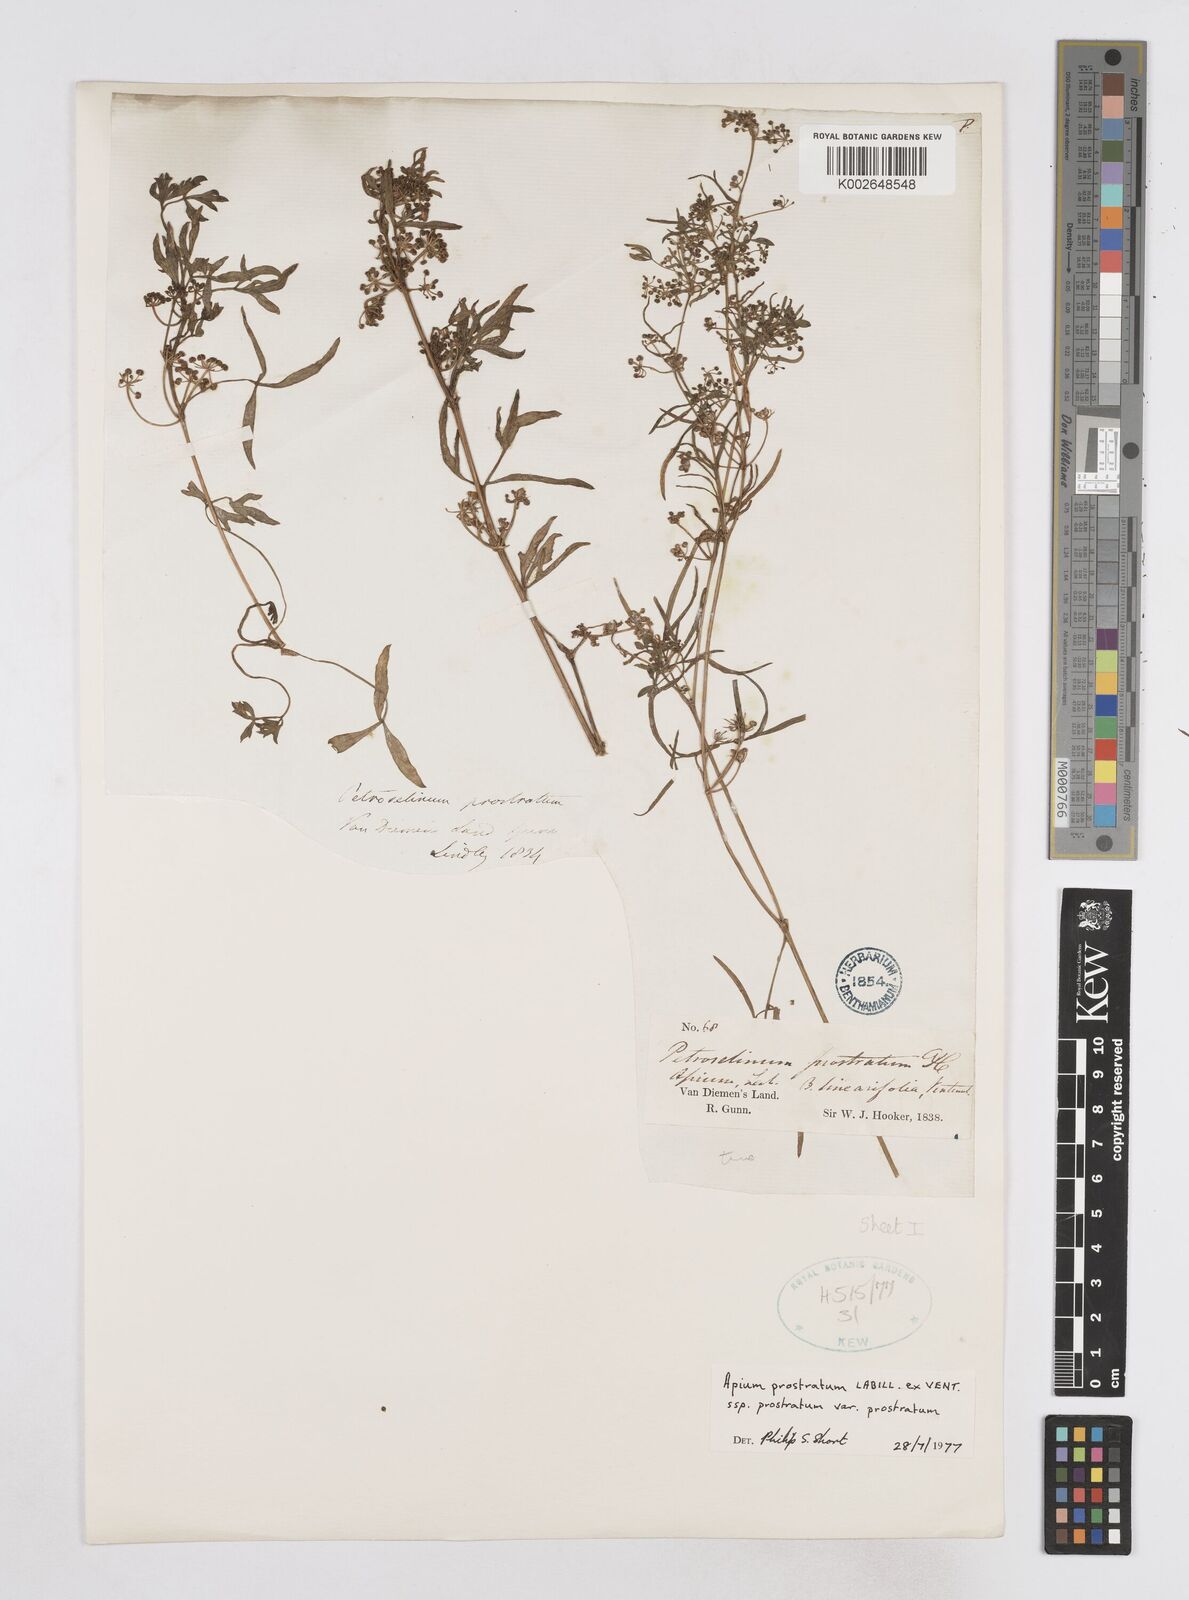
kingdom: Plantae
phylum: Tracheophyta
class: Magnoliopsida
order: Apiales
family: Apiaceae
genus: Apium
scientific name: Apium prostratum
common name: Prostrate marshwort
